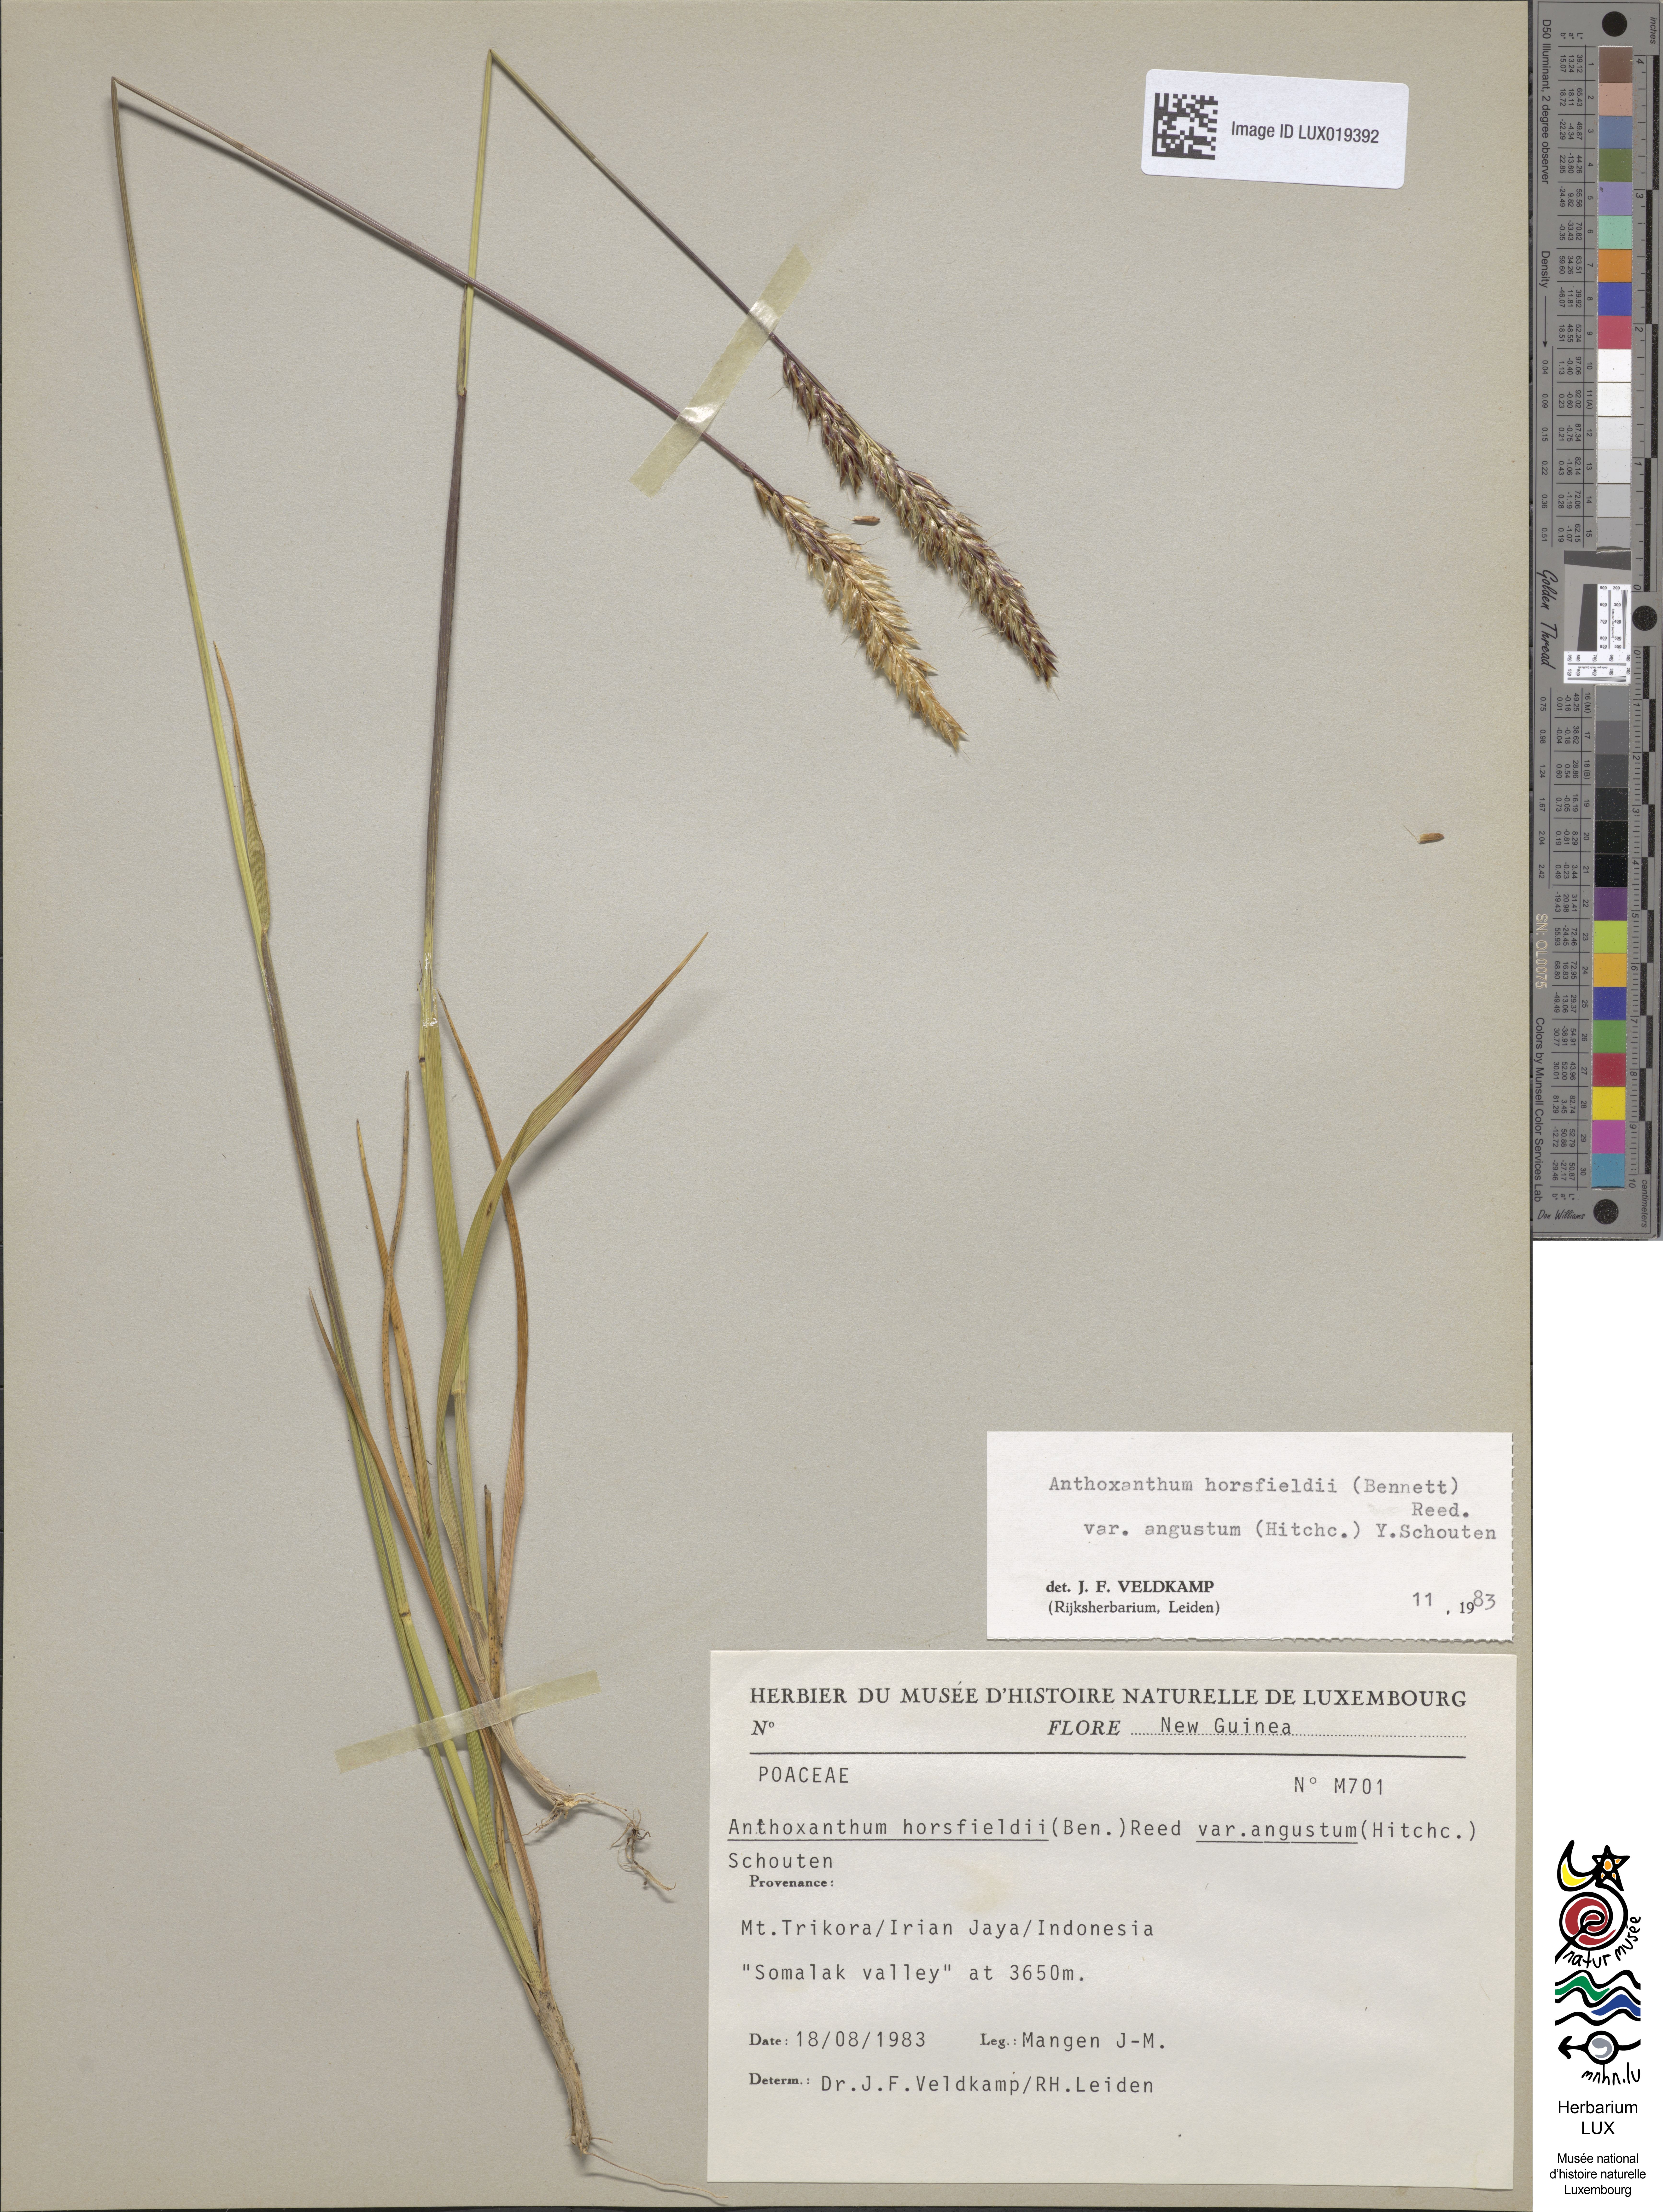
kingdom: Plantae
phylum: Tracheophyta
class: Liliopsida
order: Poales
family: Poaceae
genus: Anthoxanthum
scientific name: Anthoxanthum horsfieldii
